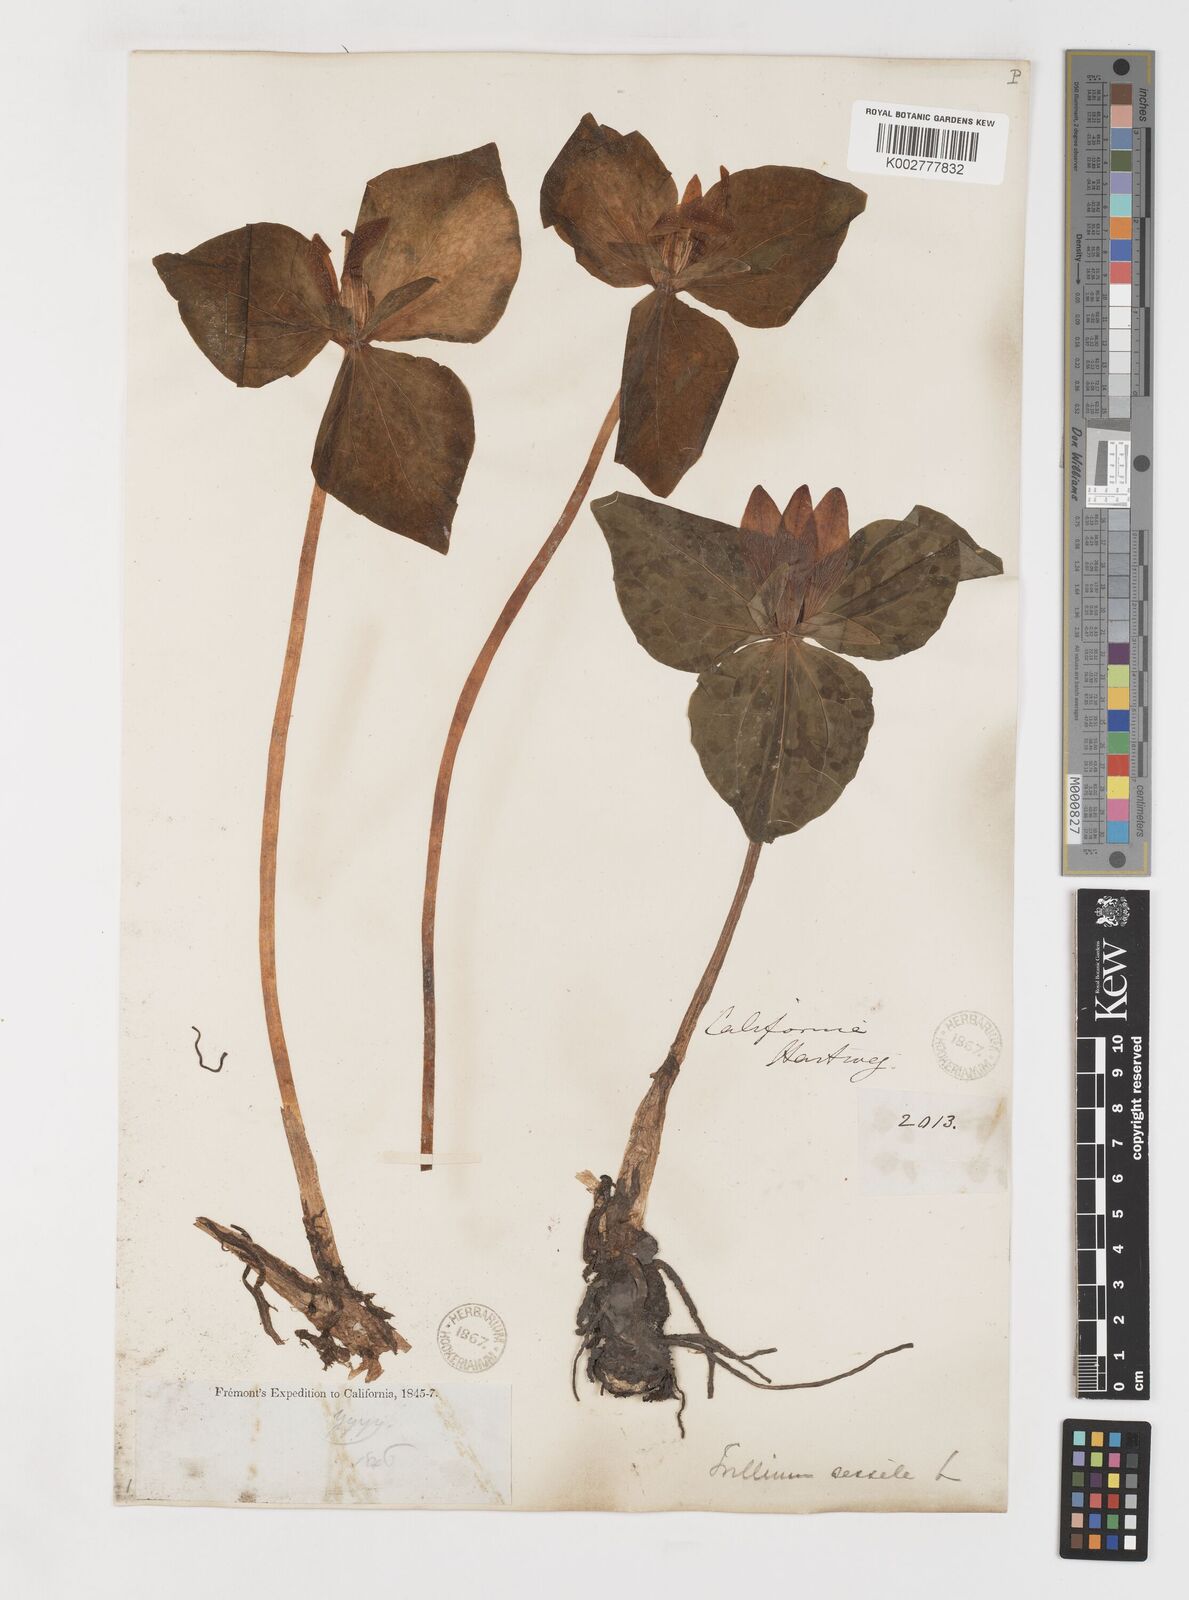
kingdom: Plantae
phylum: Tracheophyta
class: Liliopsida
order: Liliales
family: Melanthiaceae
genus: Trillium
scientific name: Trillium chloropetalum
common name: Giant trillium
